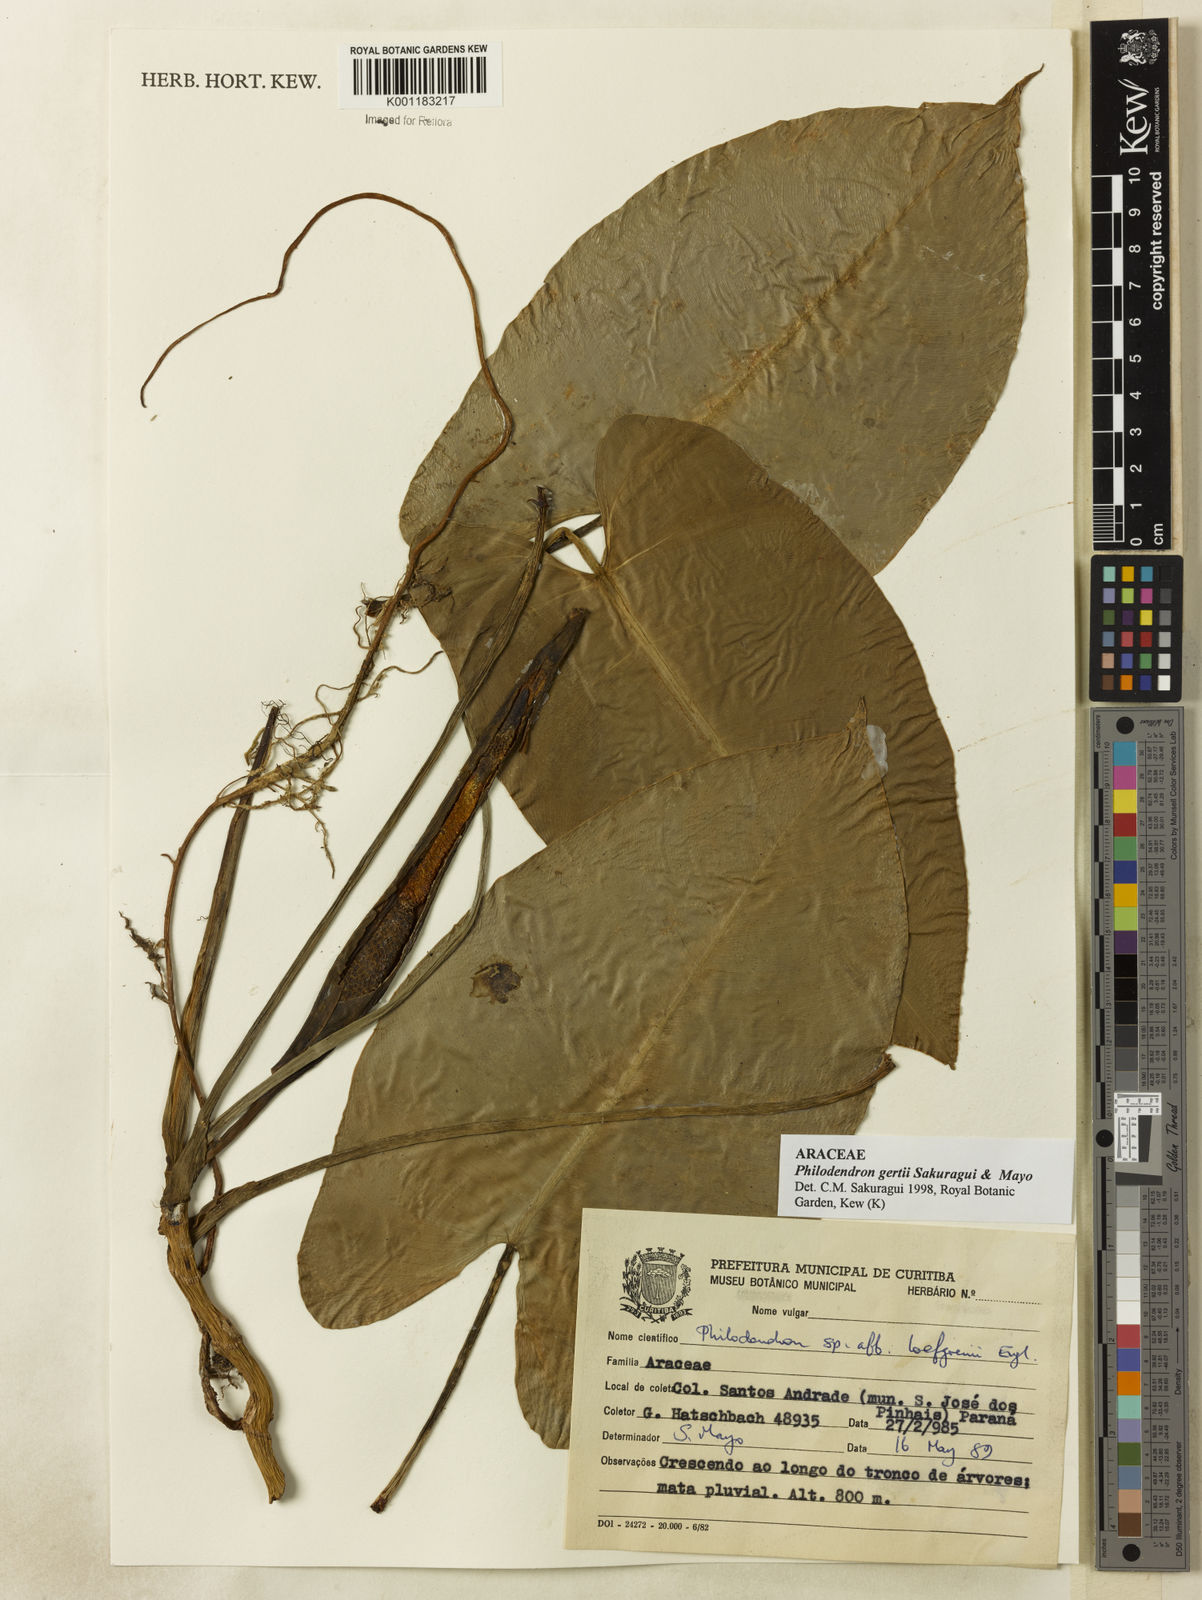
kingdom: Plantae
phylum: Tracheophyta
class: Liliopsida
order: Alismatales
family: Araceae
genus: Philodendron
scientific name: Philodendron
